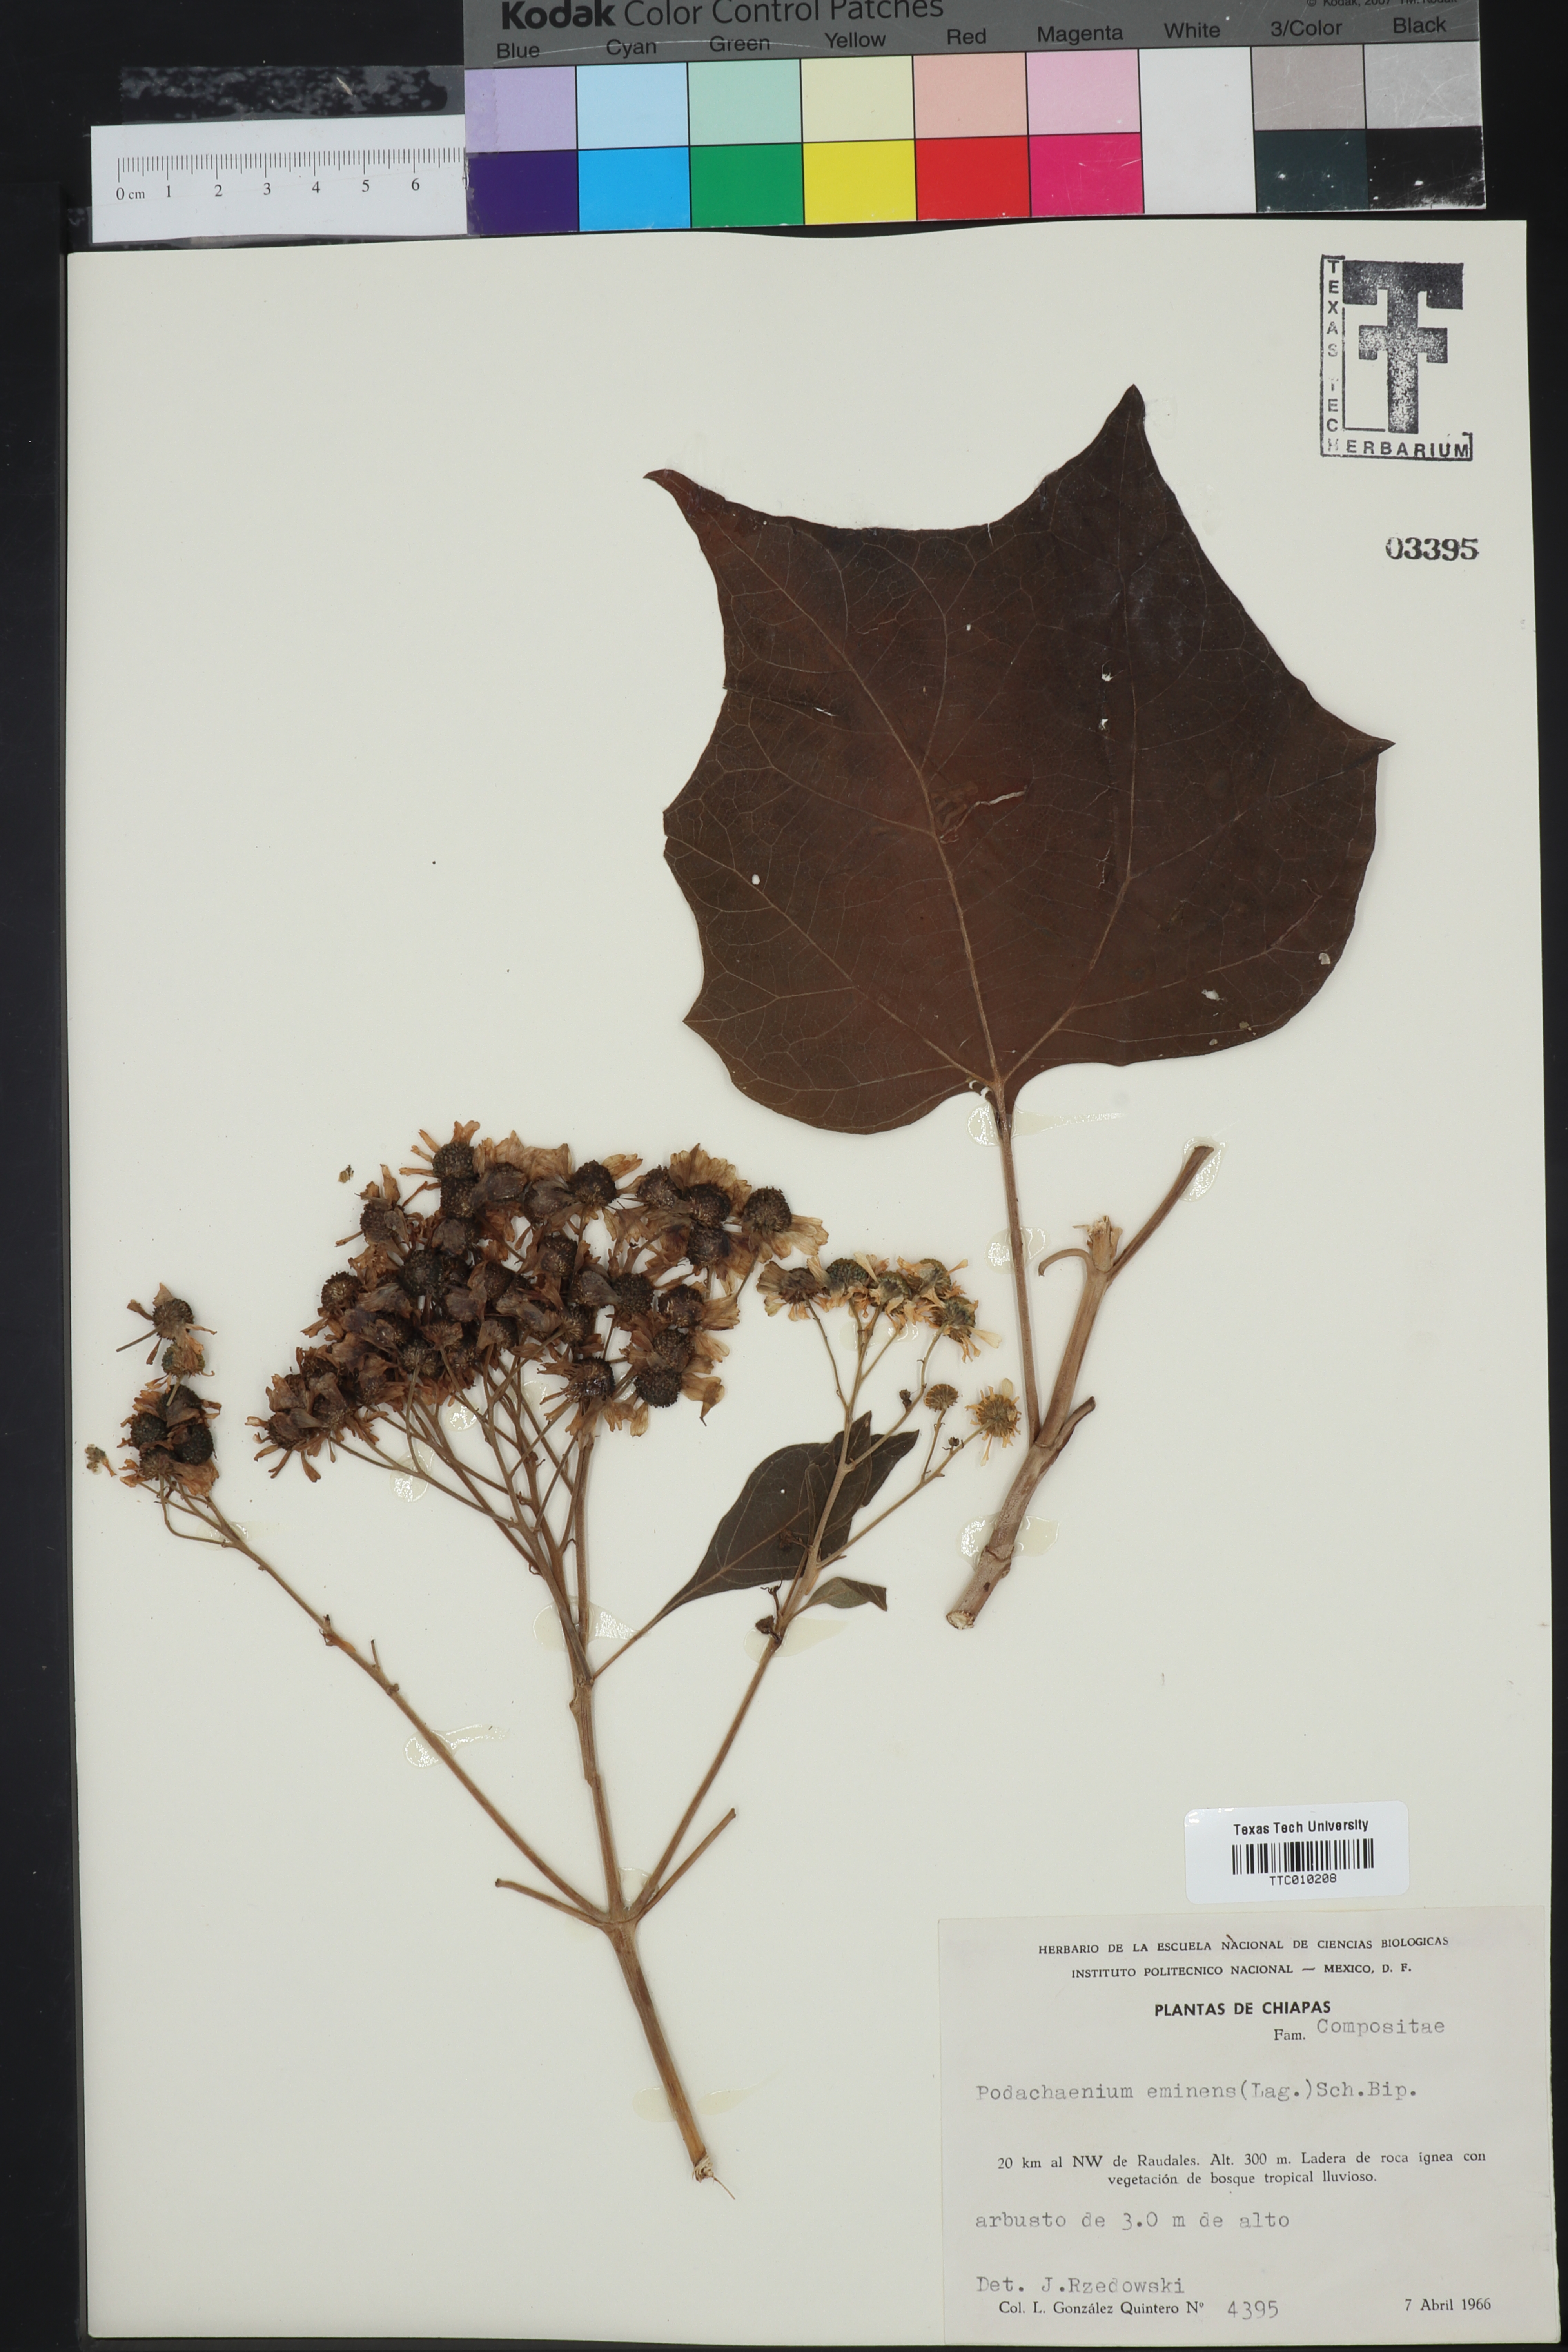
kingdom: Plantae
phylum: Tracheophyta
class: Magnoliopsida
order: Asterales
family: Asteraceae
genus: Podachaenium
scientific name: Podachaenium eminens
